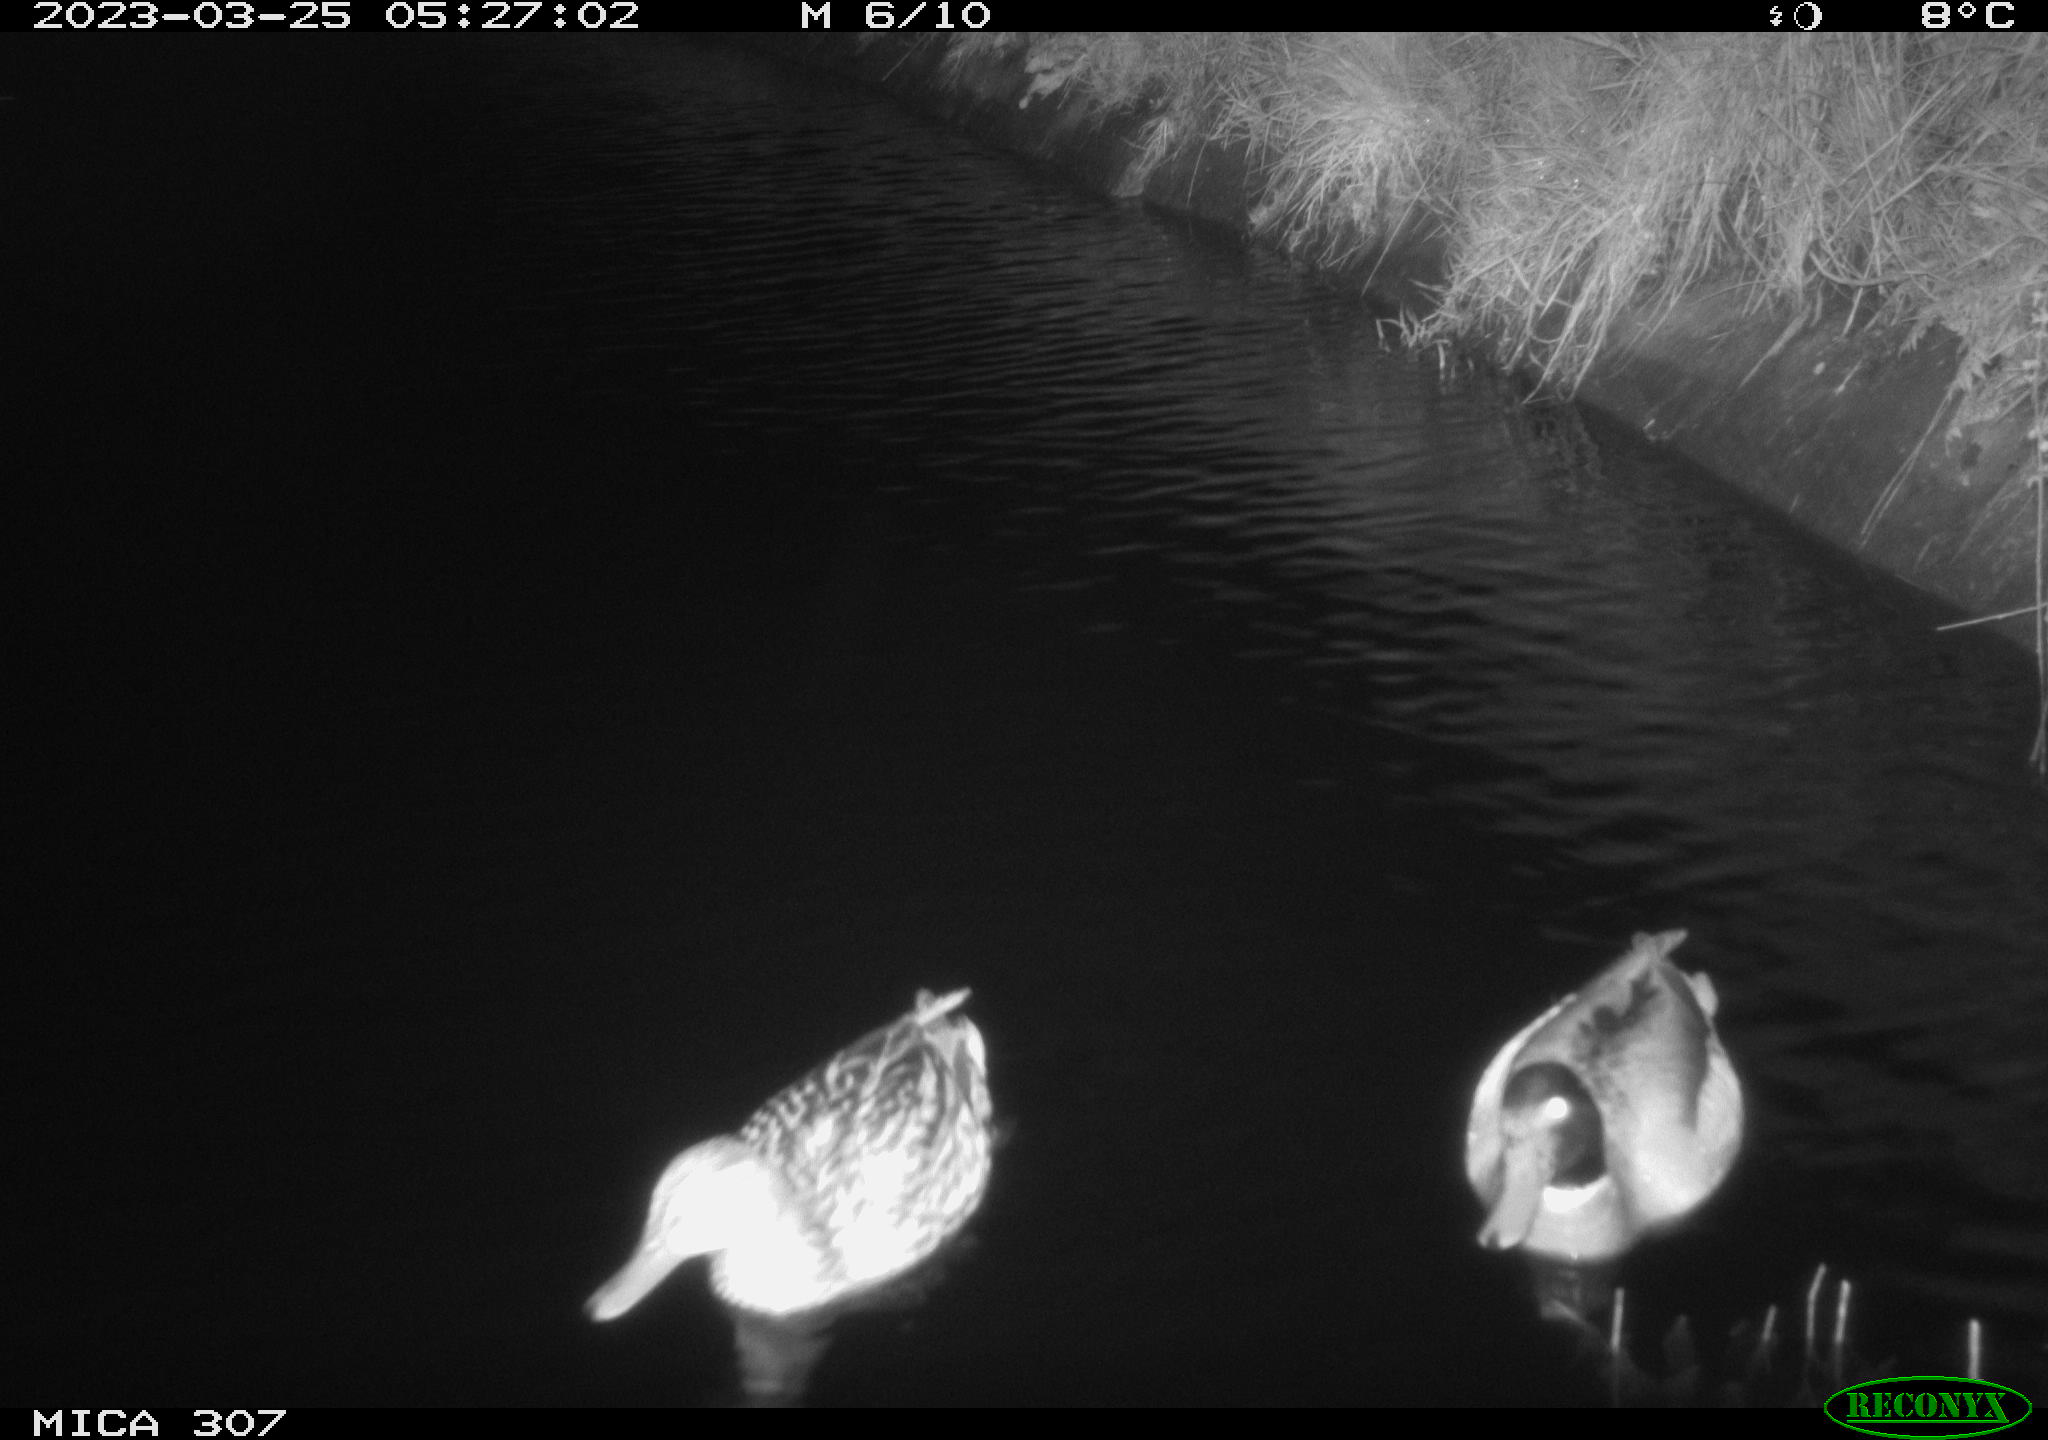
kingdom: Animalia
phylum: Chordata
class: Aves
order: Anseriformes
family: Anatidae
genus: Anas
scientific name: Anas
